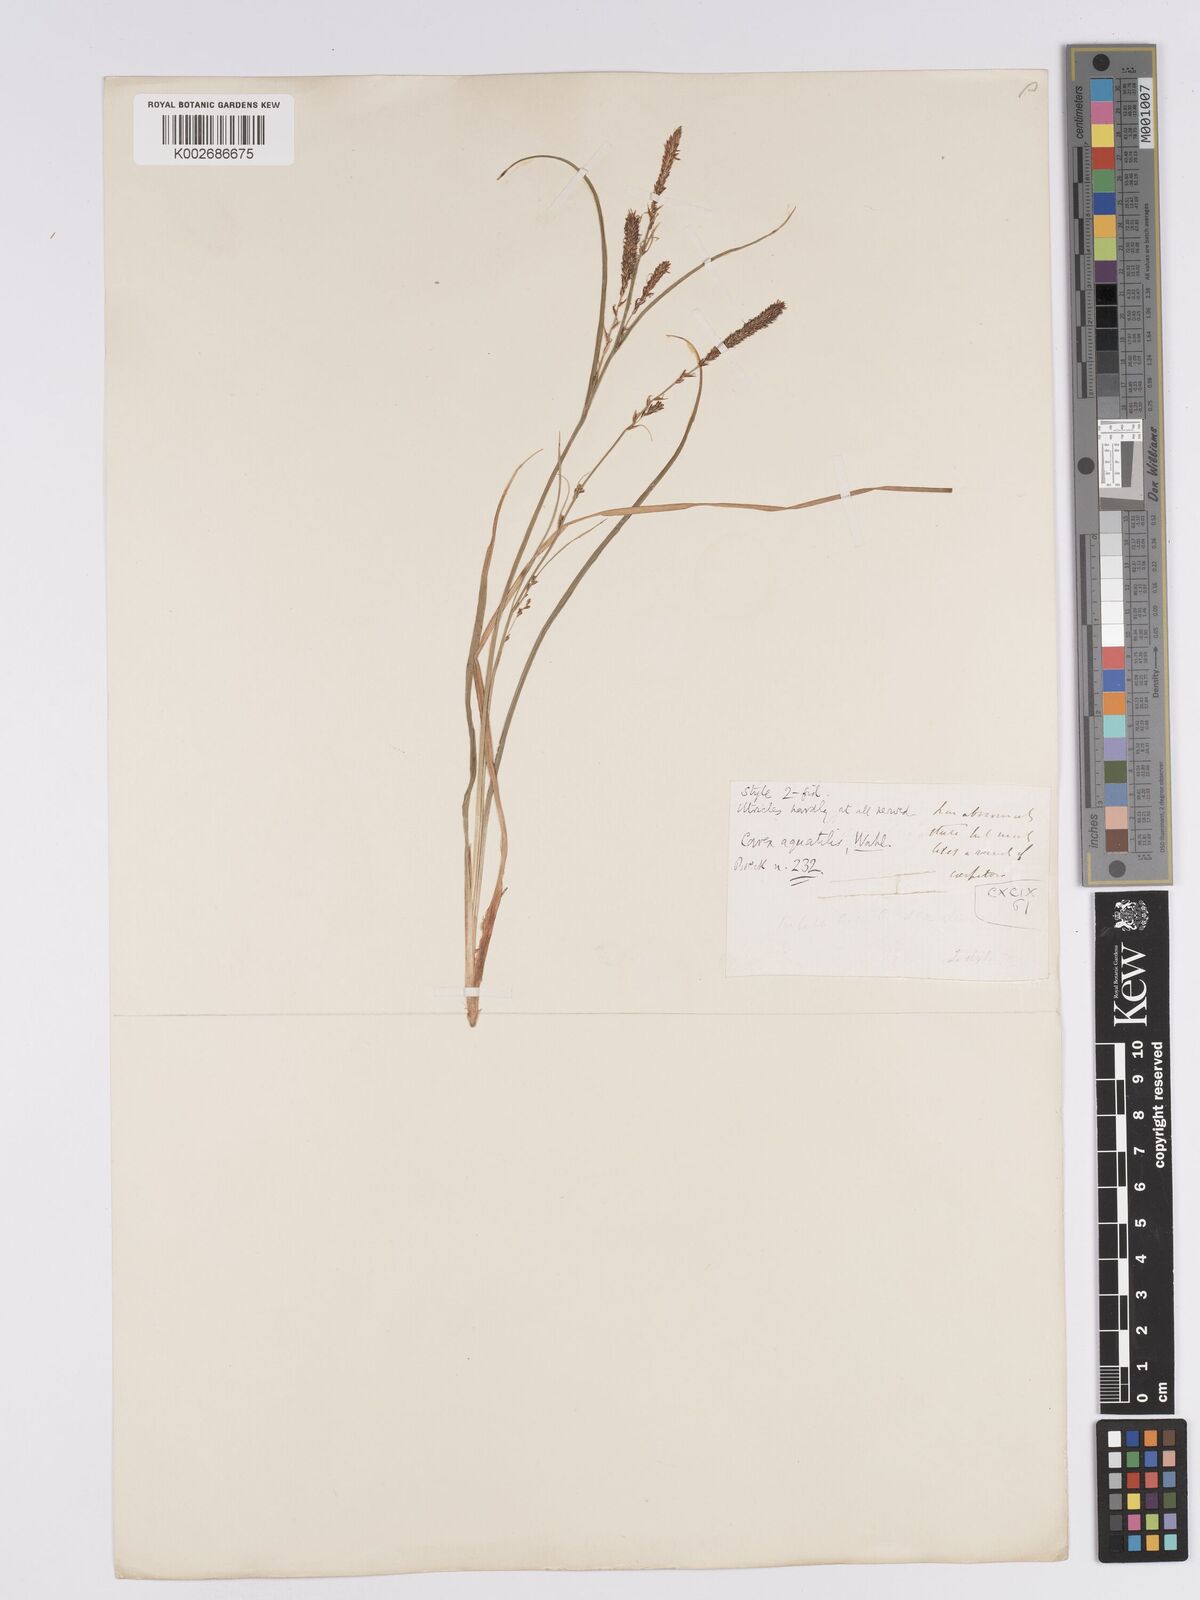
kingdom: Plantae
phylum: Tracheophyta
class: Liliopsida
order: Poales
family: Cyperaceae
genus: Carex
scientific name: Carex aquatilis
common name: Water sedge
